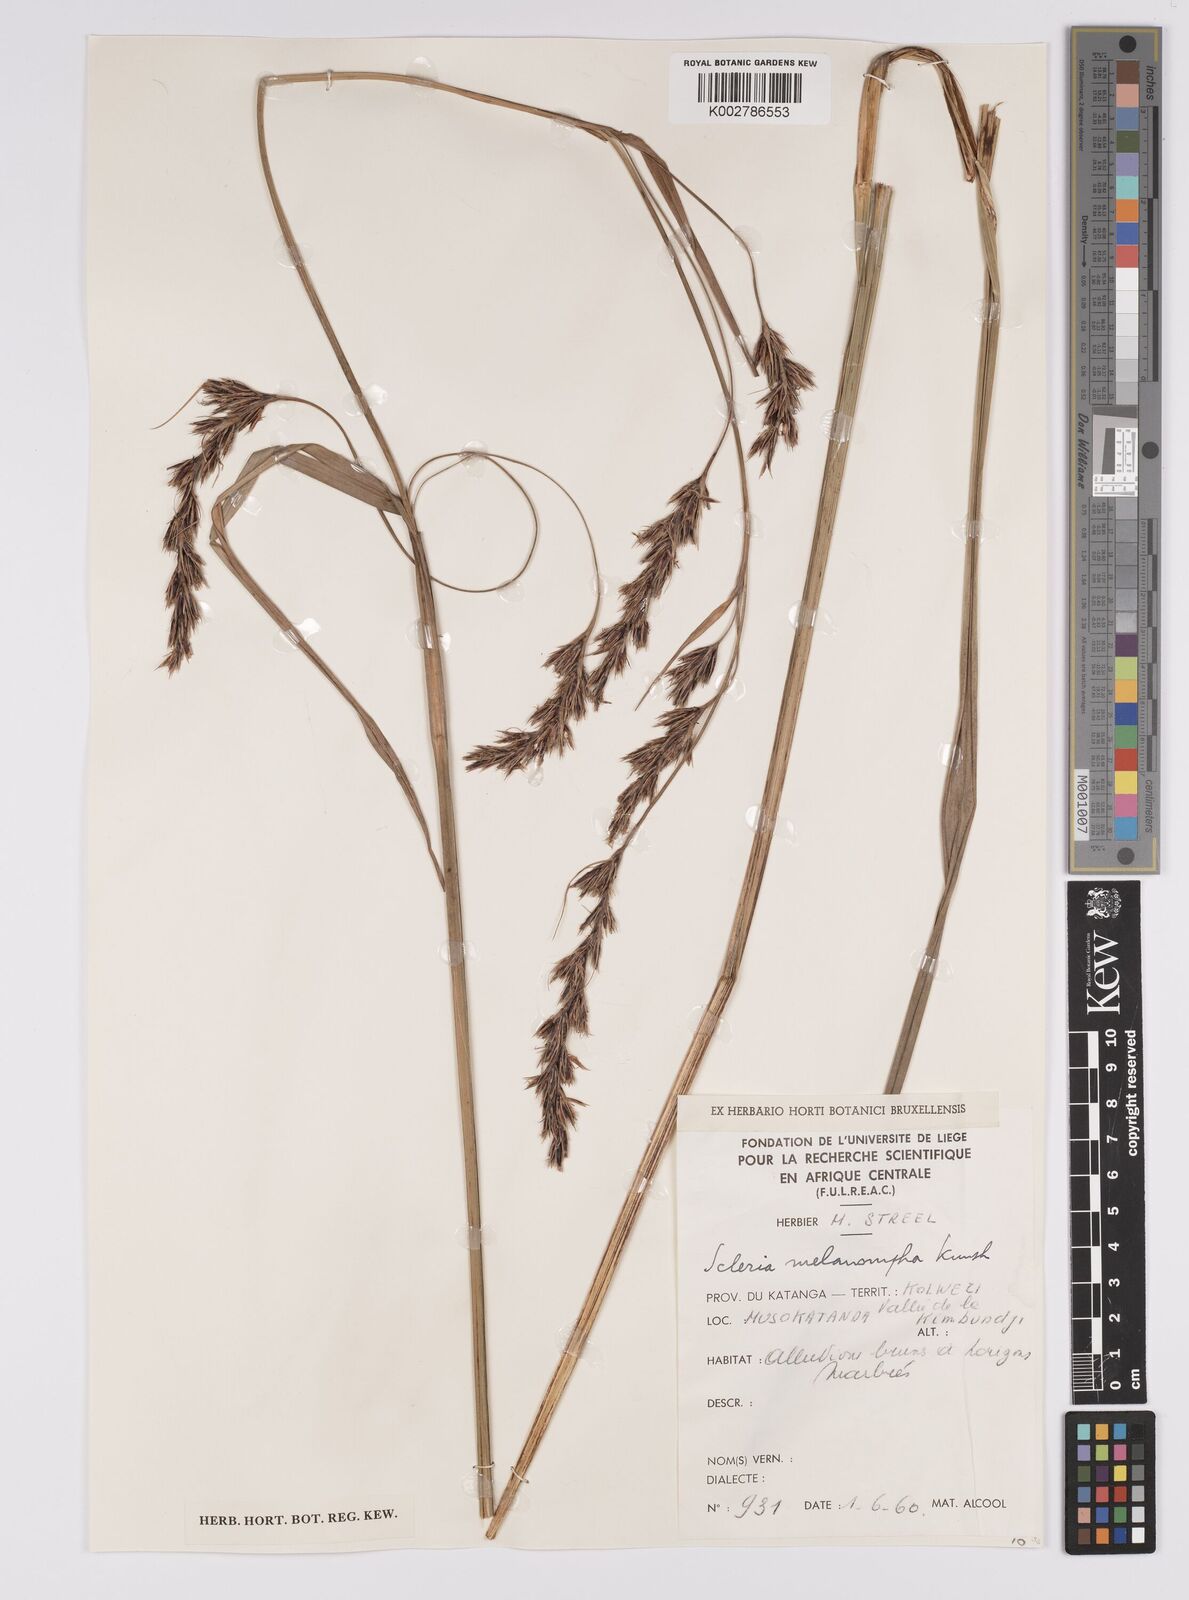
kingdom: Plantae
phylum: Tracheophyta
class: Liliopsida
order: Poales
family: Cyperaceae
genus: Scleria
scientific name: Scleria melanomphala
